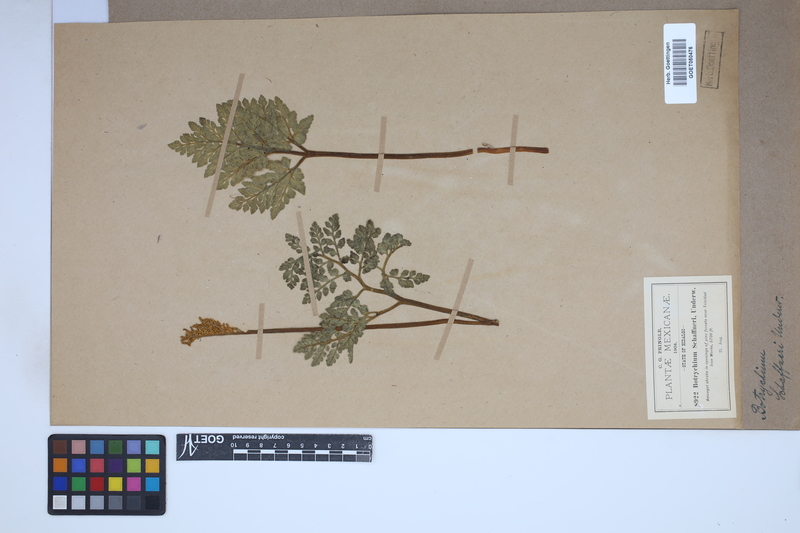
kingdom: Plantae
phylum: Tracheophyta
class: Polypodiopsida
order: Ophioglossales
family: Ophioglossaceae
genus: Sceptridium
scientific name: Sceptridium schaffneri
